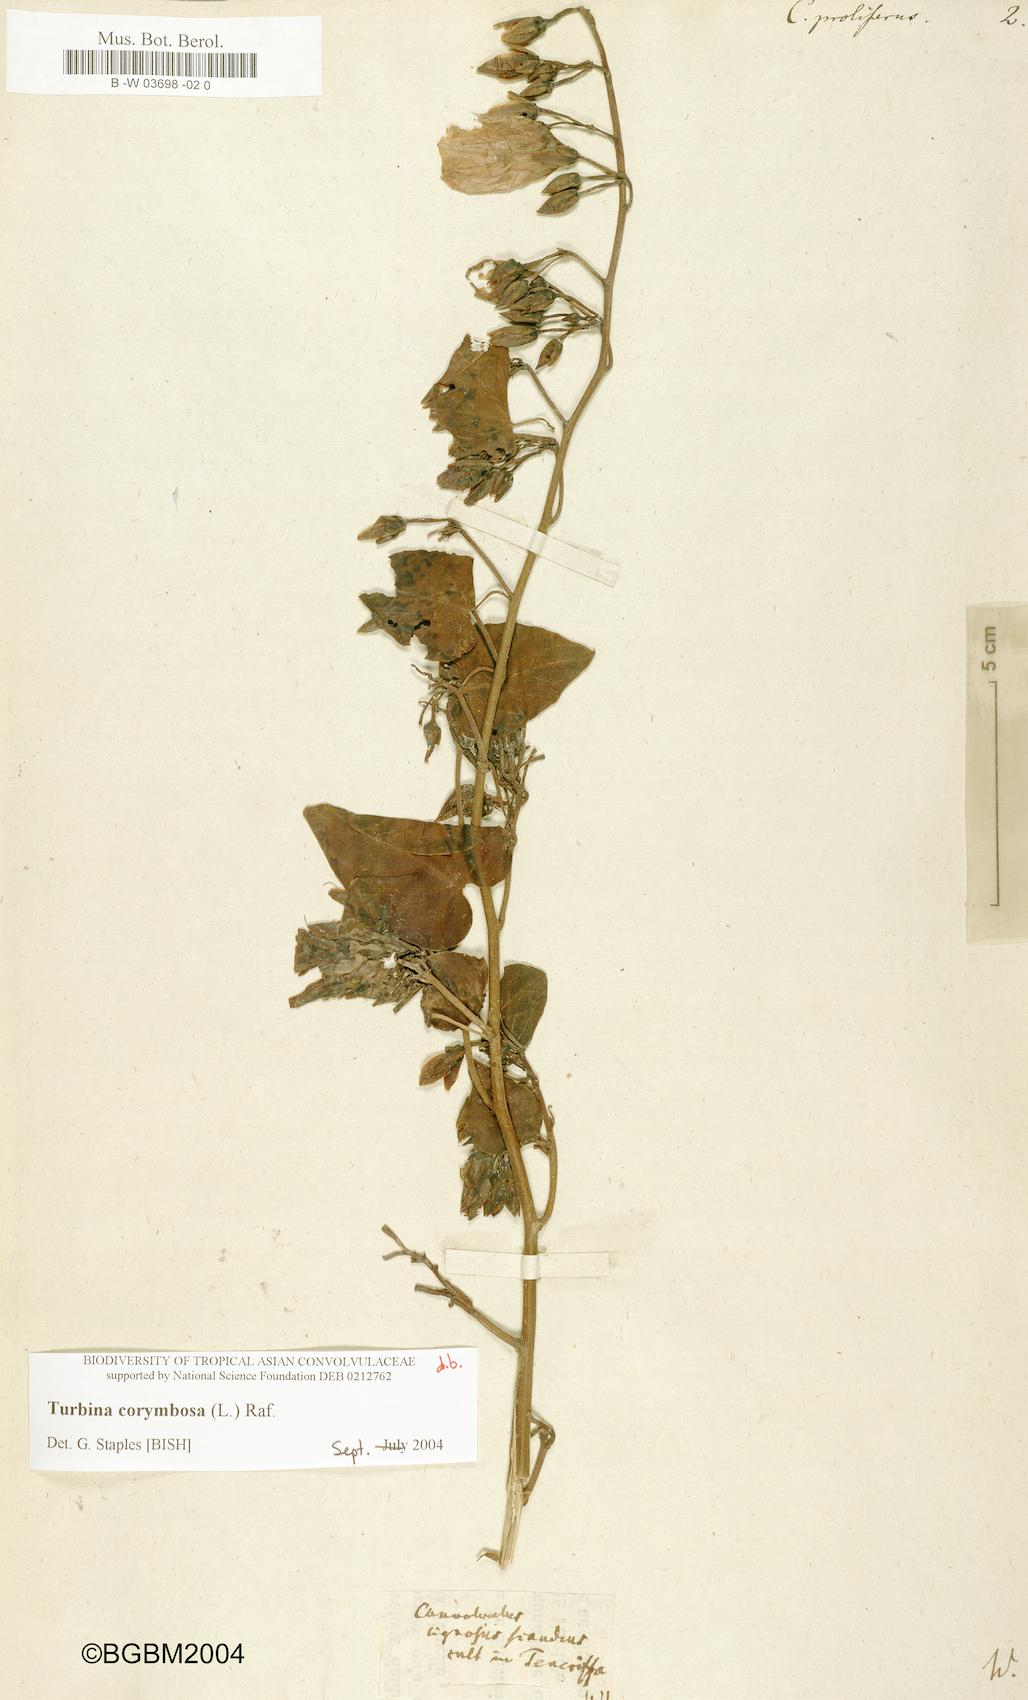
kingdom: Plantae
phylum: Tracheophyta
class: Magnoliopsida
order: Solanales
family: Convolvulaceae
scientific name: Convolvulaceae
